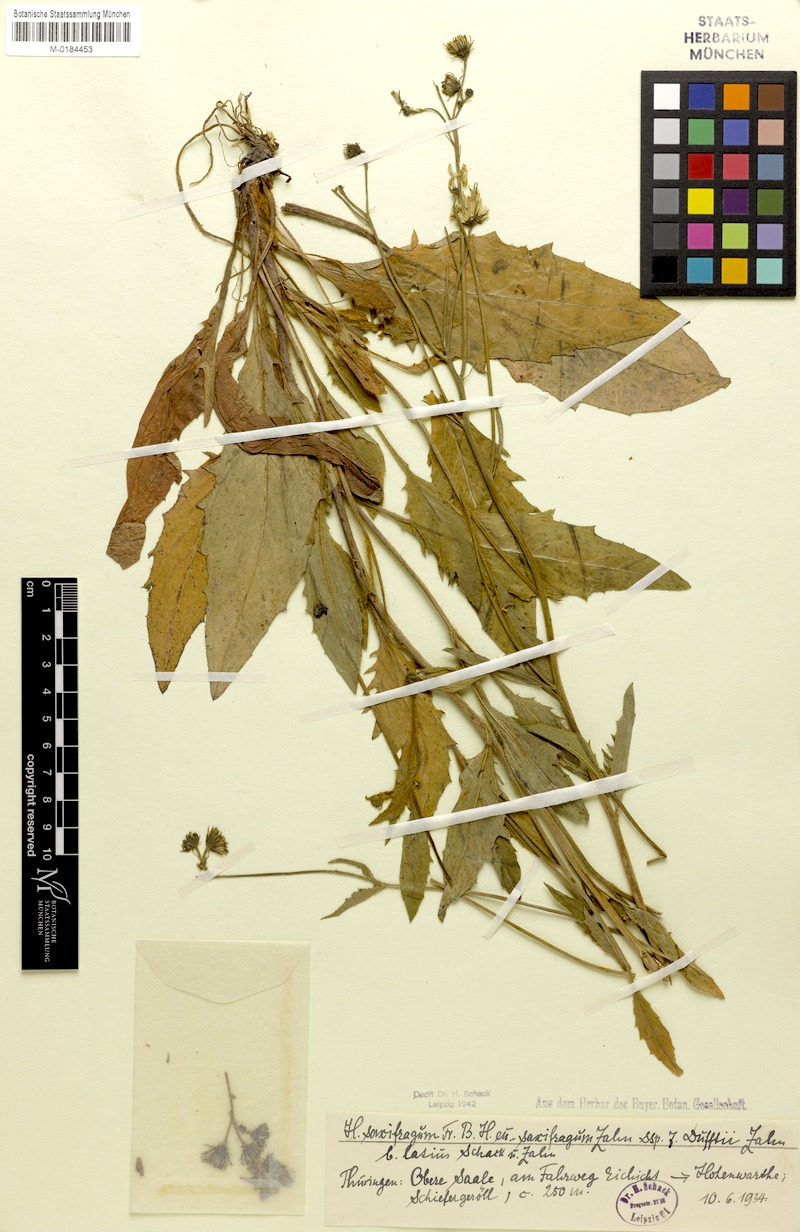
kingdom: Plantae
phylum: Tracheophyta
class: Magnoliopsida
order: Asterales
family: Asteraceae
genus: Hieracium
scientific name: Hieracium saxifragum
